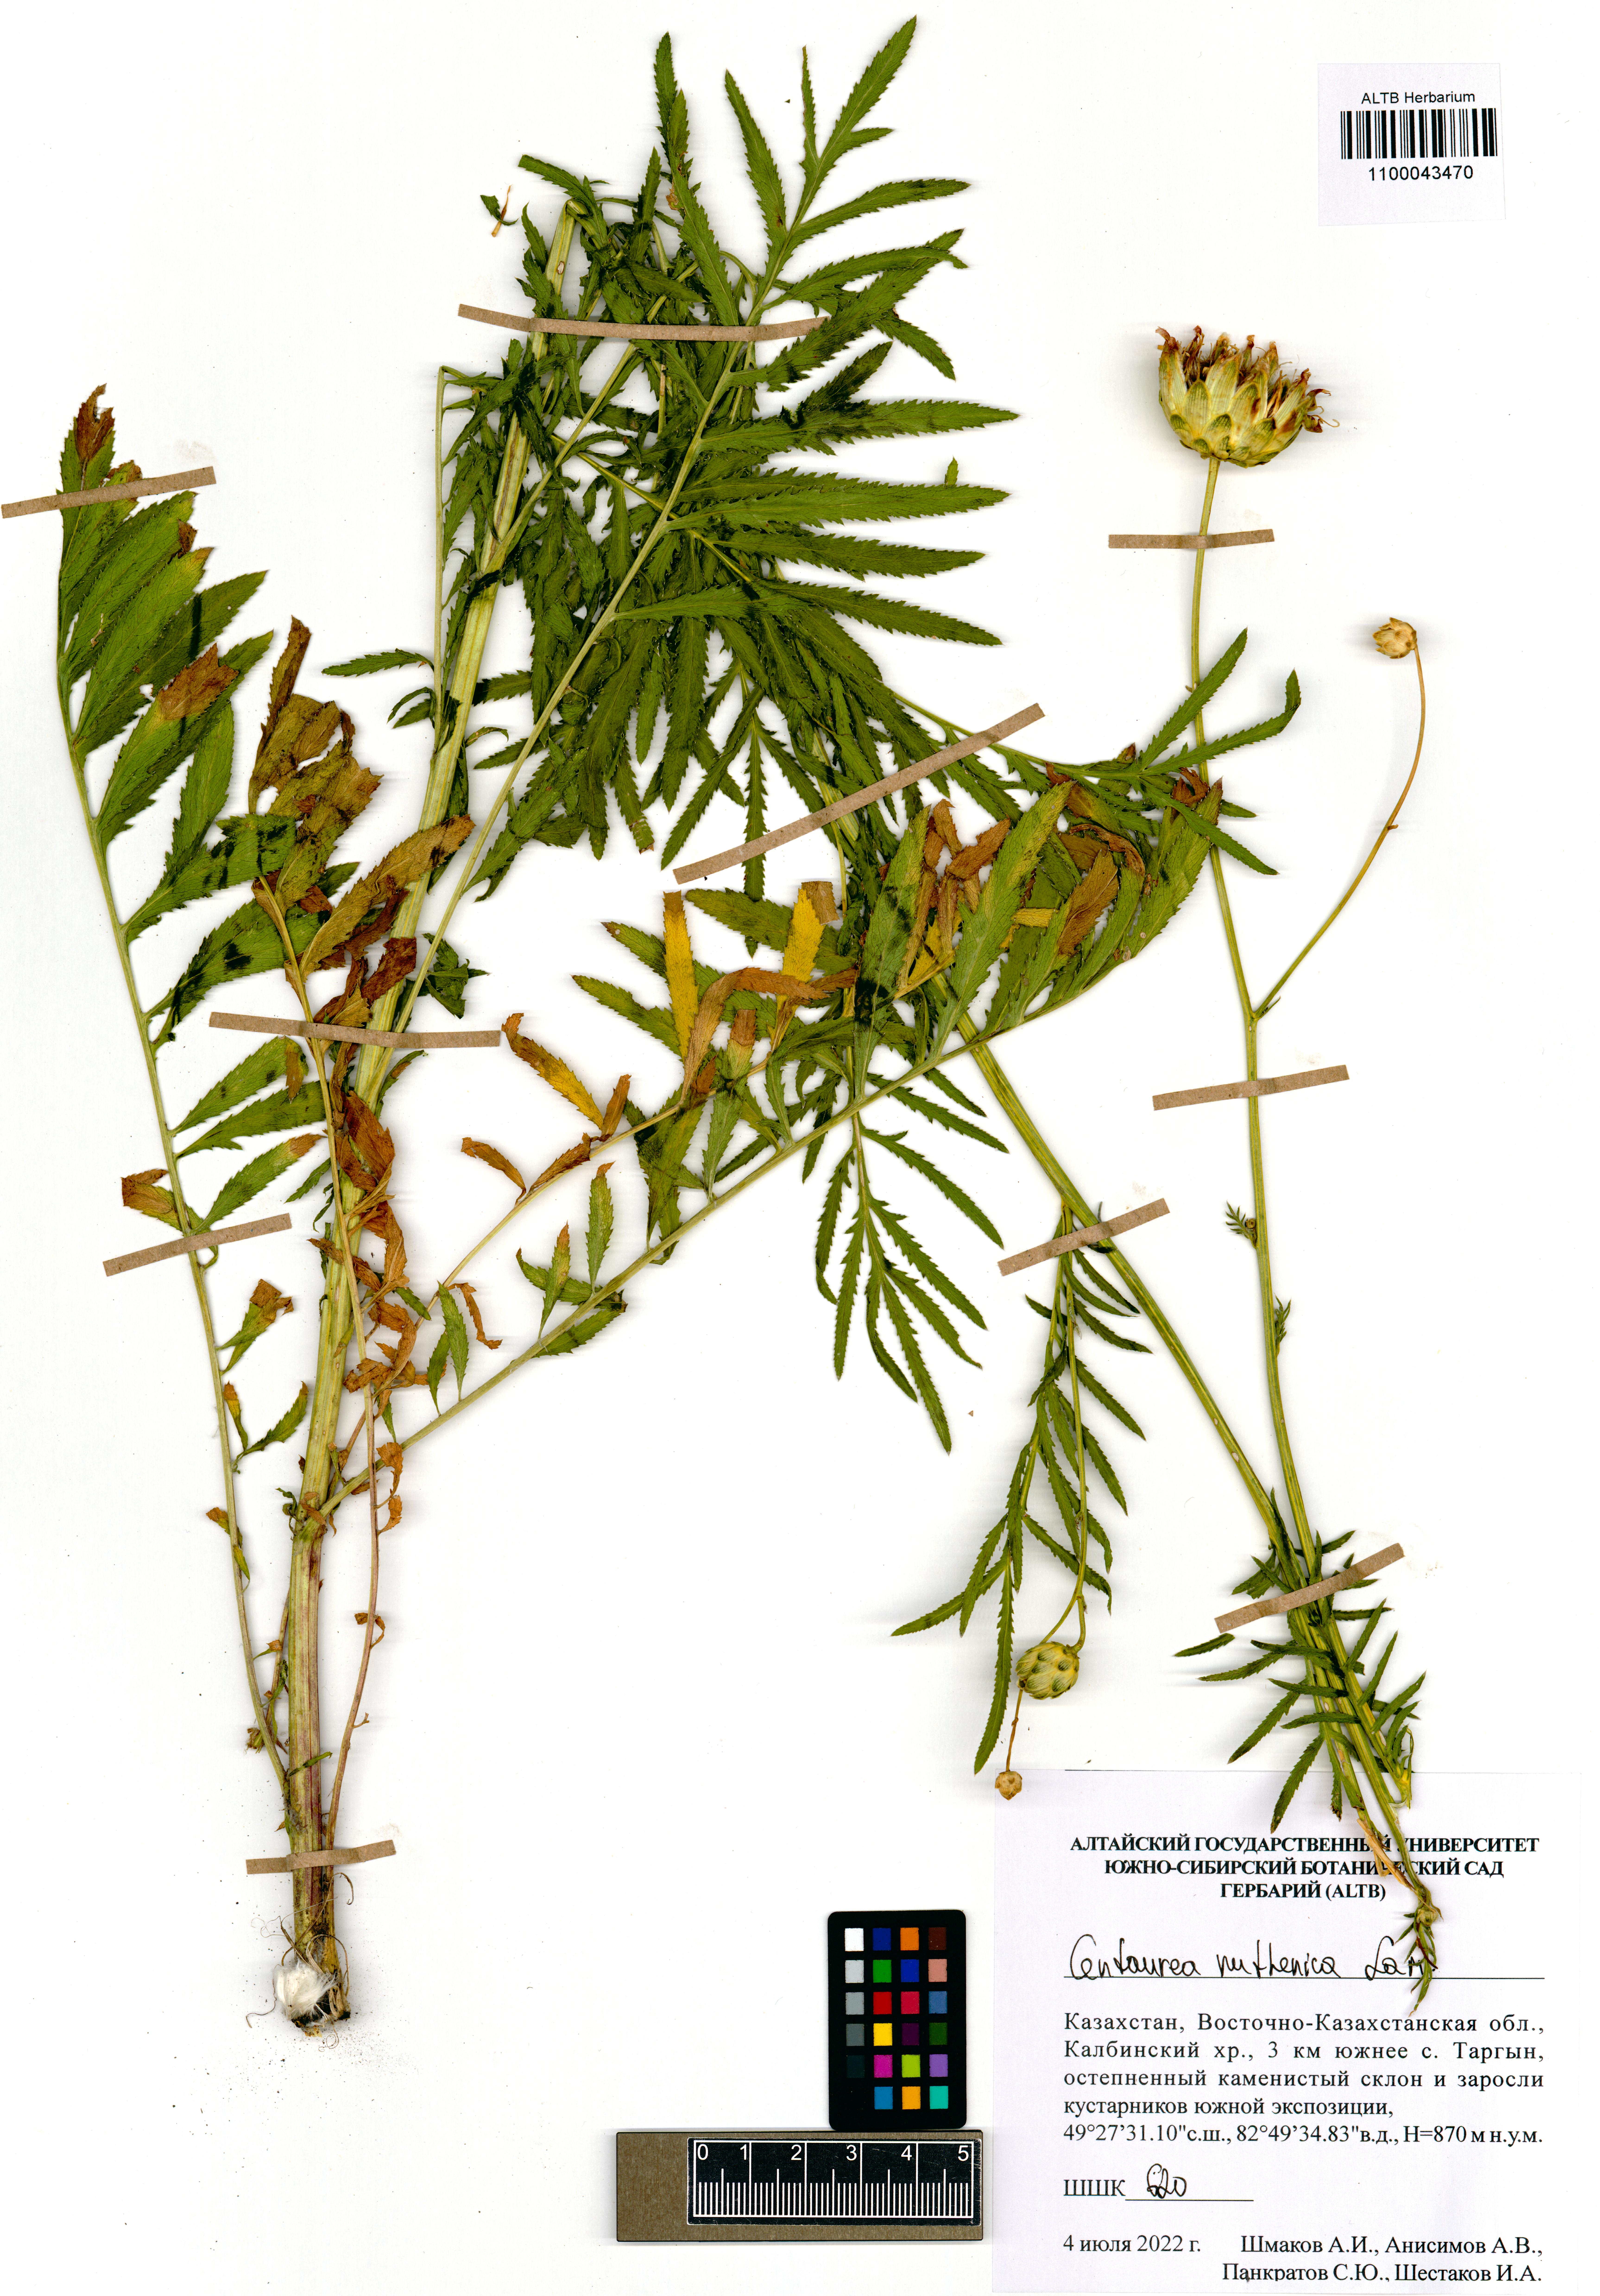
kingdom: Plantae
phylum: Tracheophyta
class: Magnoliopsida
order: Asterales
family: Asteraceae
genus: Rhaponticoides
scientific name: Rhaponticoides ruthenica
